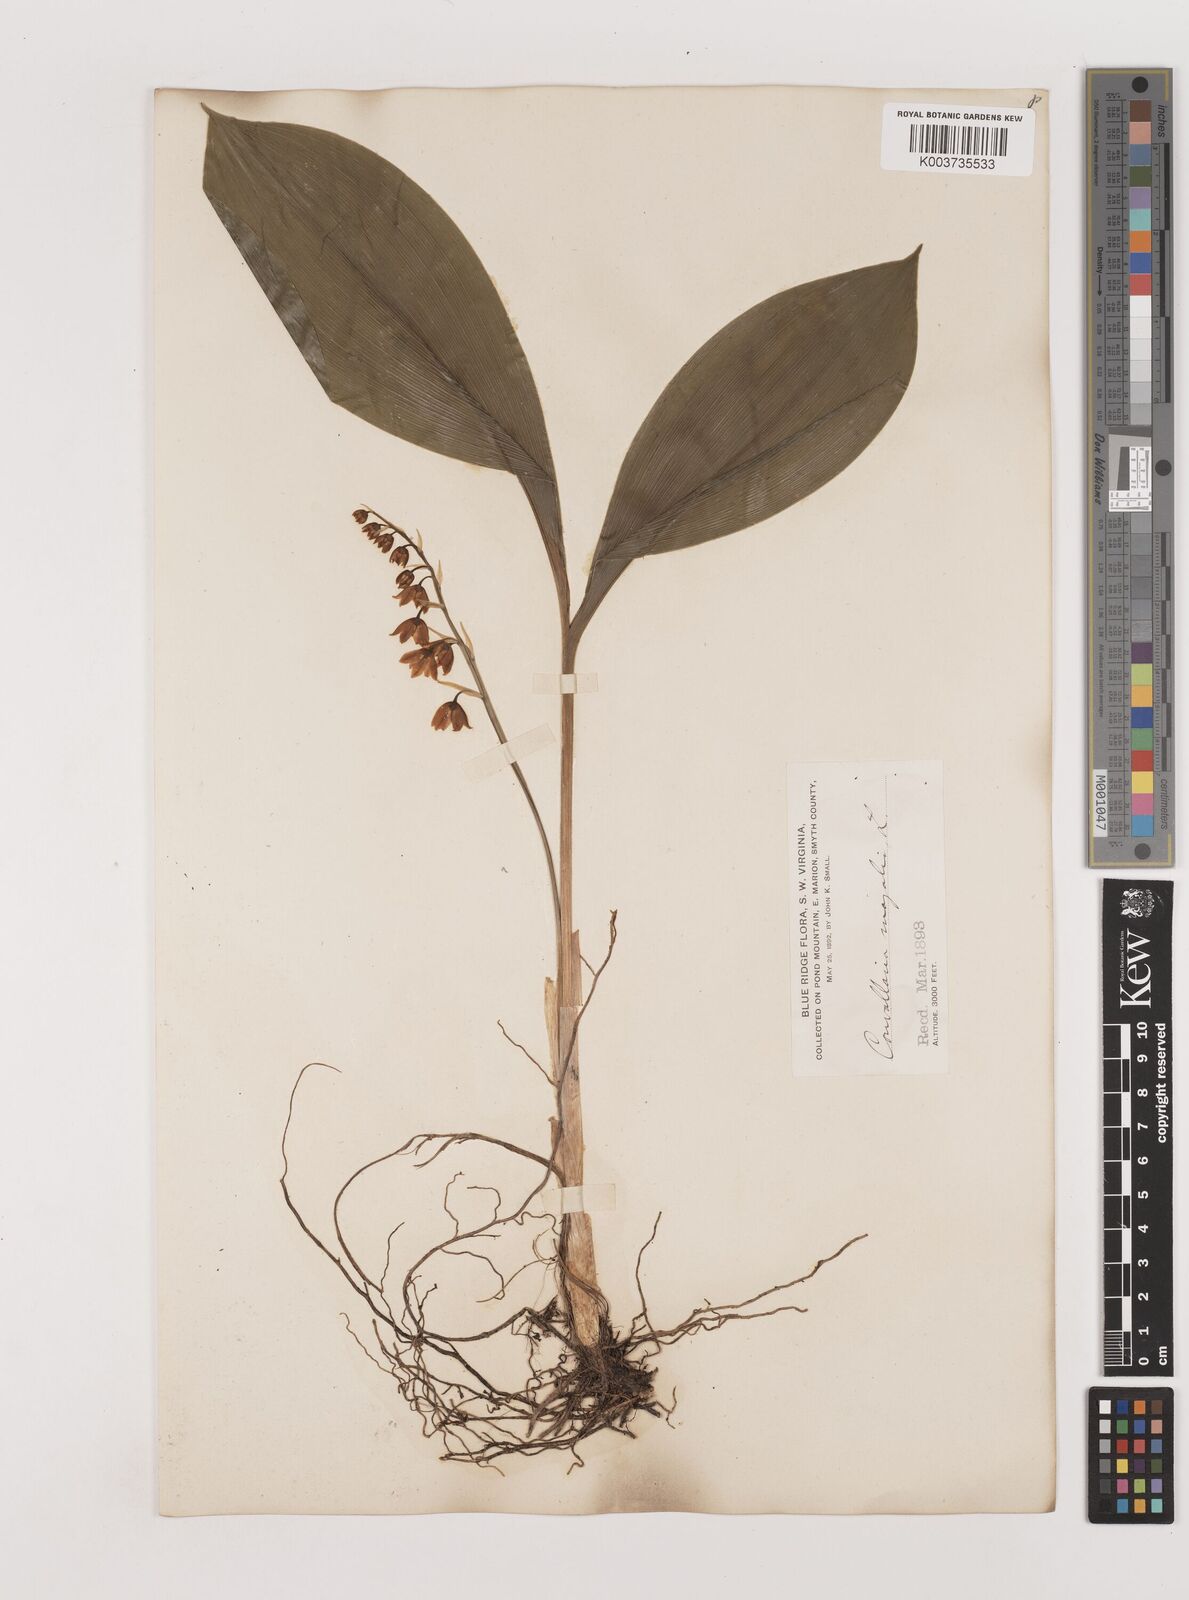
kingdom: Plantae
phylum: Tracheophyta
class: Liliopsida
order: Asparagales
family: Asparagaceae
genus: Convallaria
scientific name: Convallaria pseudomajalis
